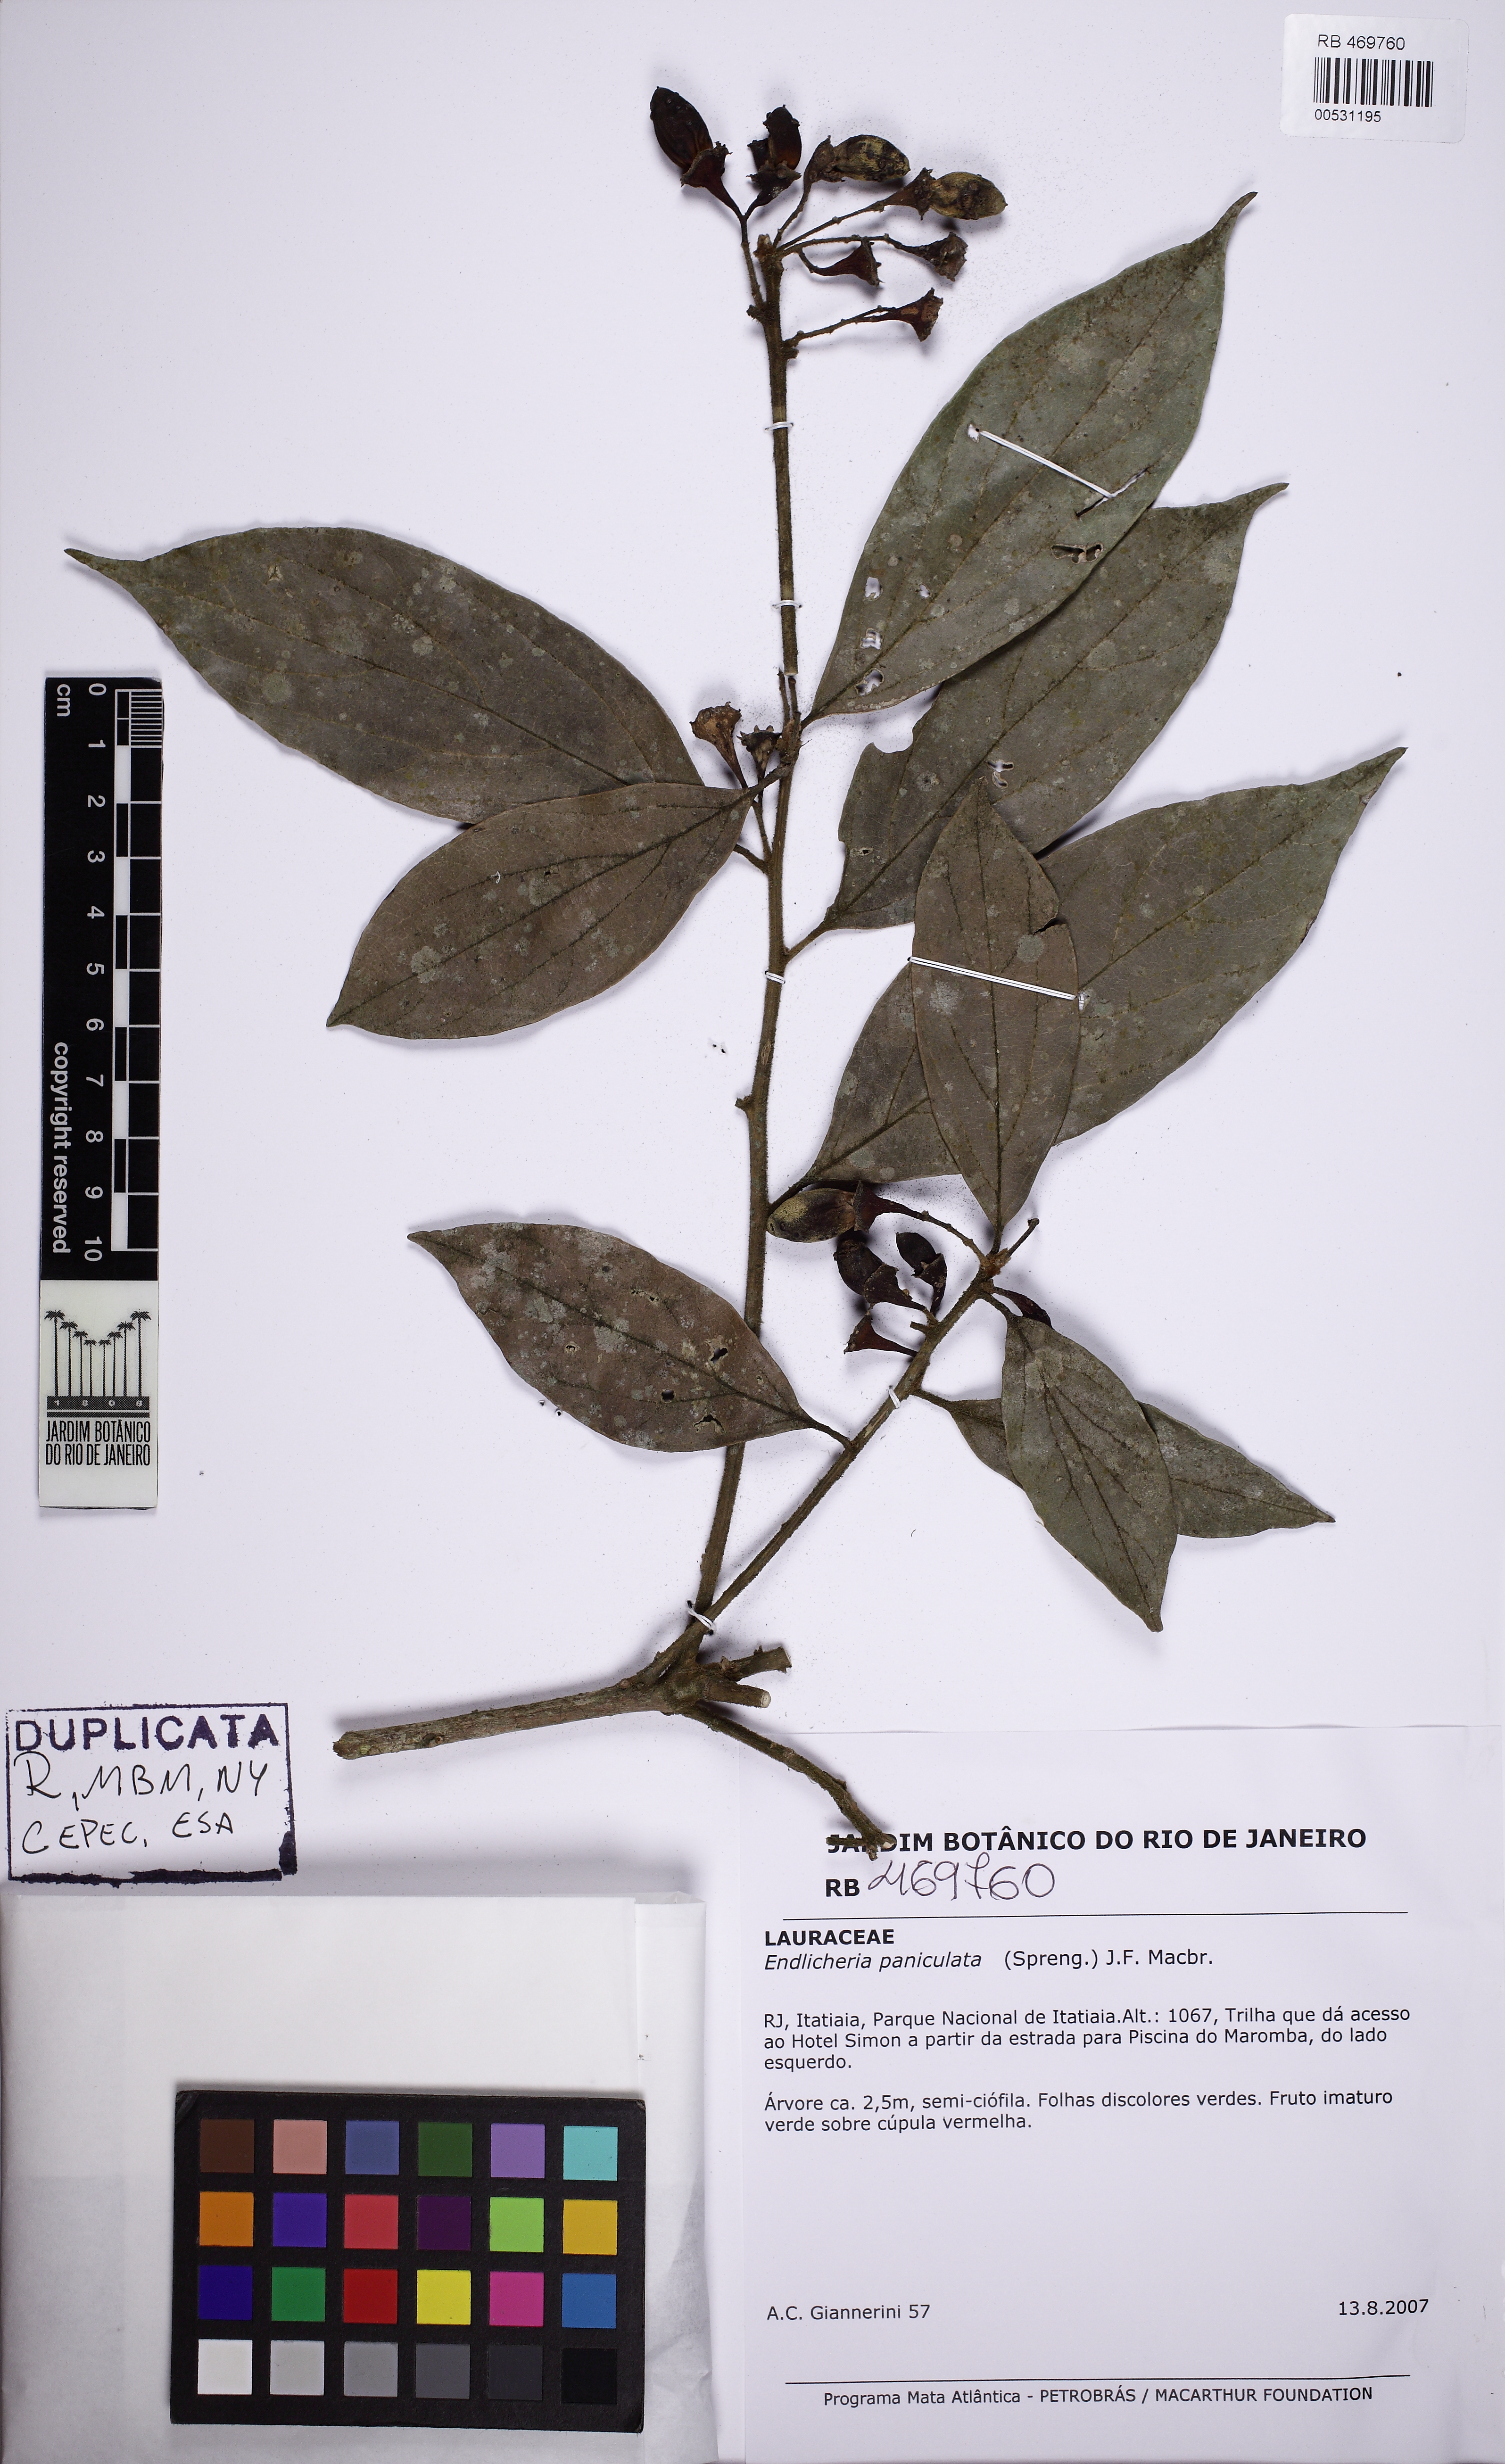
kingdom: Plantae
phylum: Tracheophyta
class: Magnoliopsida
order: Laurales
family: Lauraceae
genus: Endlicheria
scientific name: Endlicheria paniculata
